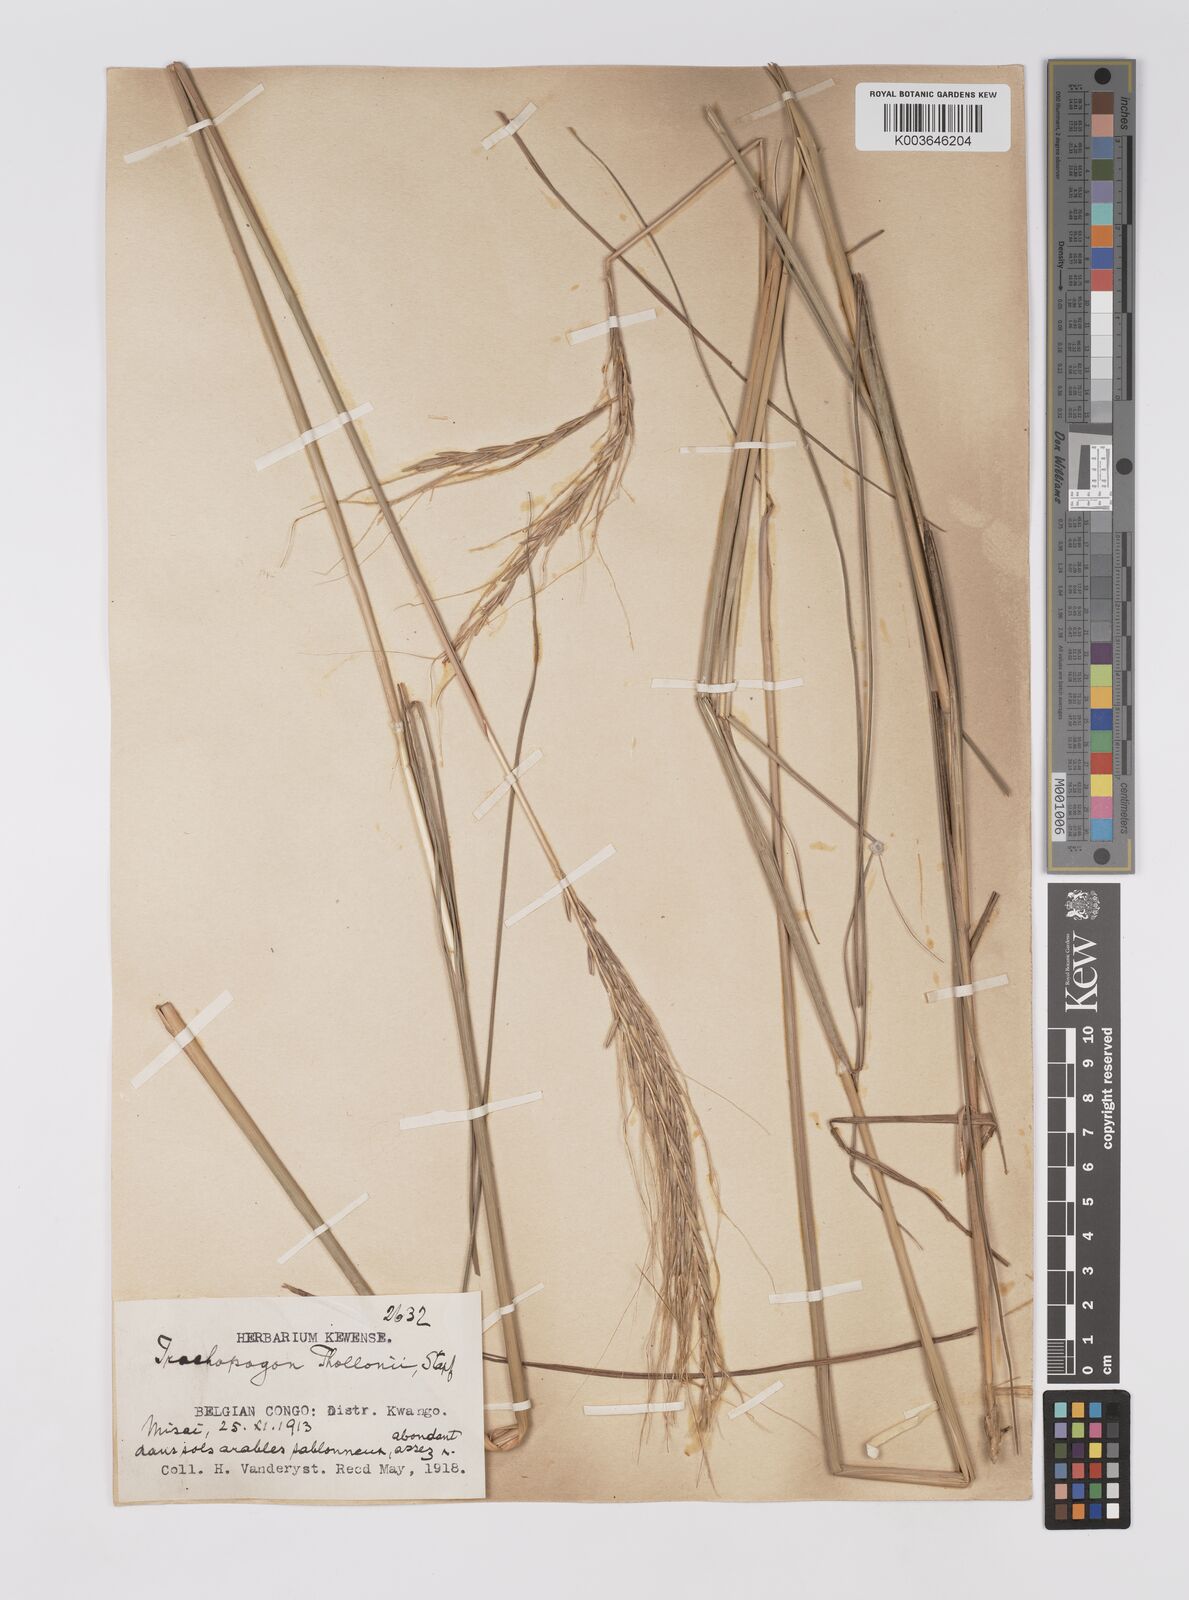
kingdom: Plantae
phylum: Tracheophyta
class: Liliopsida
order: Poales
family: Poaceae
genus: Trachypogon
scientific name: Trachypogon spicatus
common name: Crinkle-awn
